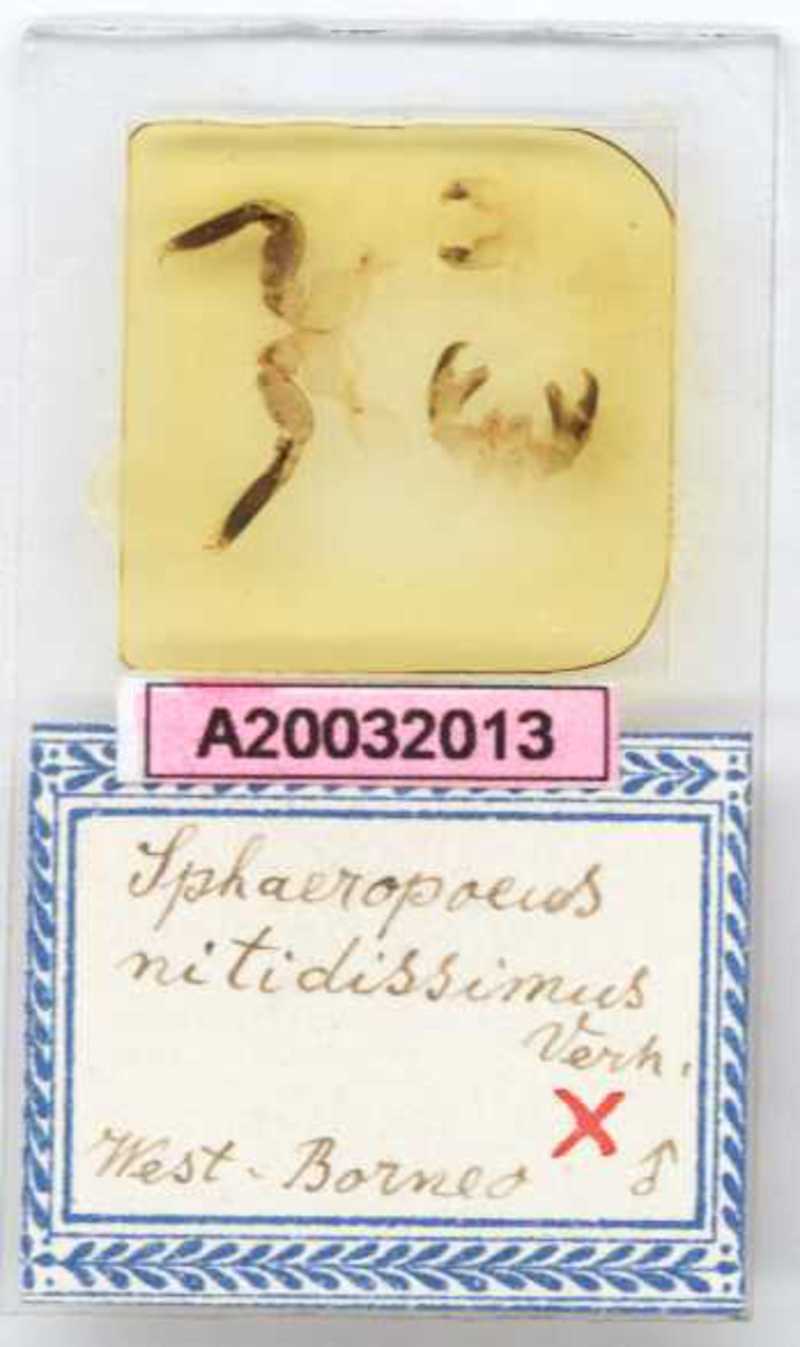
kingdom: Animalia
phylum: Arthropoda
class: Diplopoda
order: Sphaerotheriida
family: Zephroniidae
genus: Sphaeropoeus
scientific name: Sphaeropoeus
